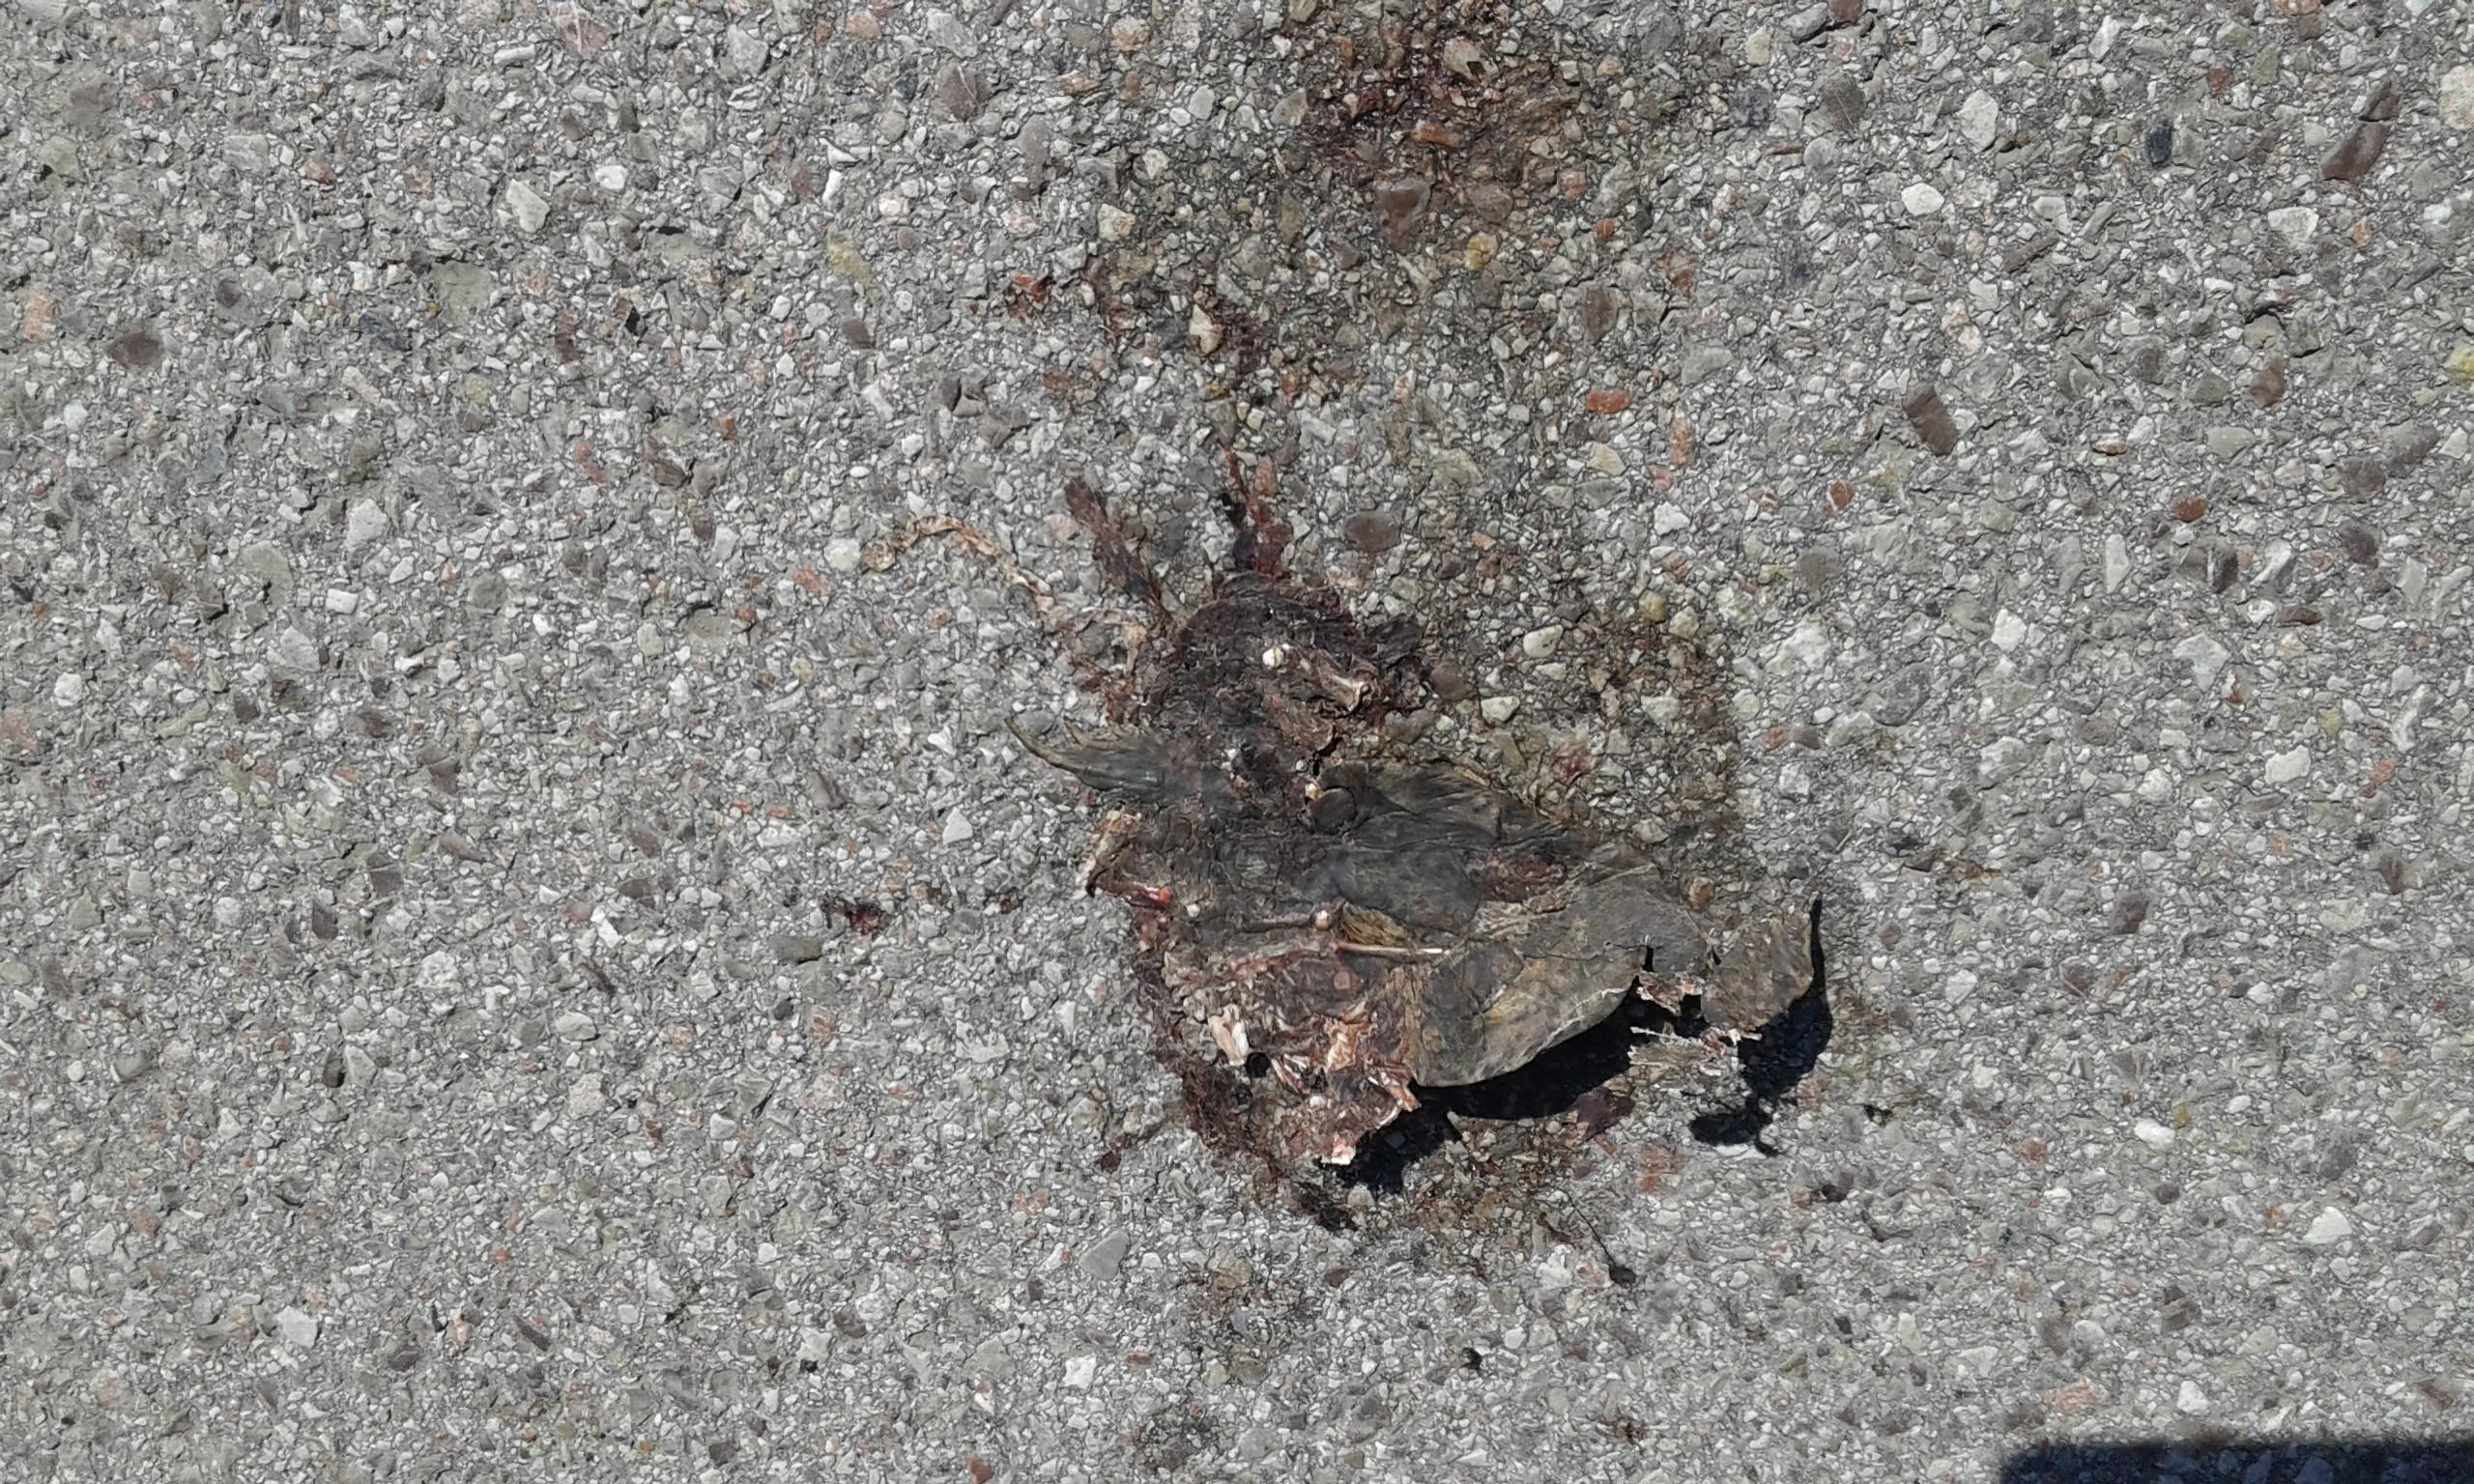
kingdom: Animalia
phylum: Chordata
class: Amphibia
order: Anura
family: Bufonidae
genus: Bufo
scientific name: Bufo bufo
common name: Common toad
